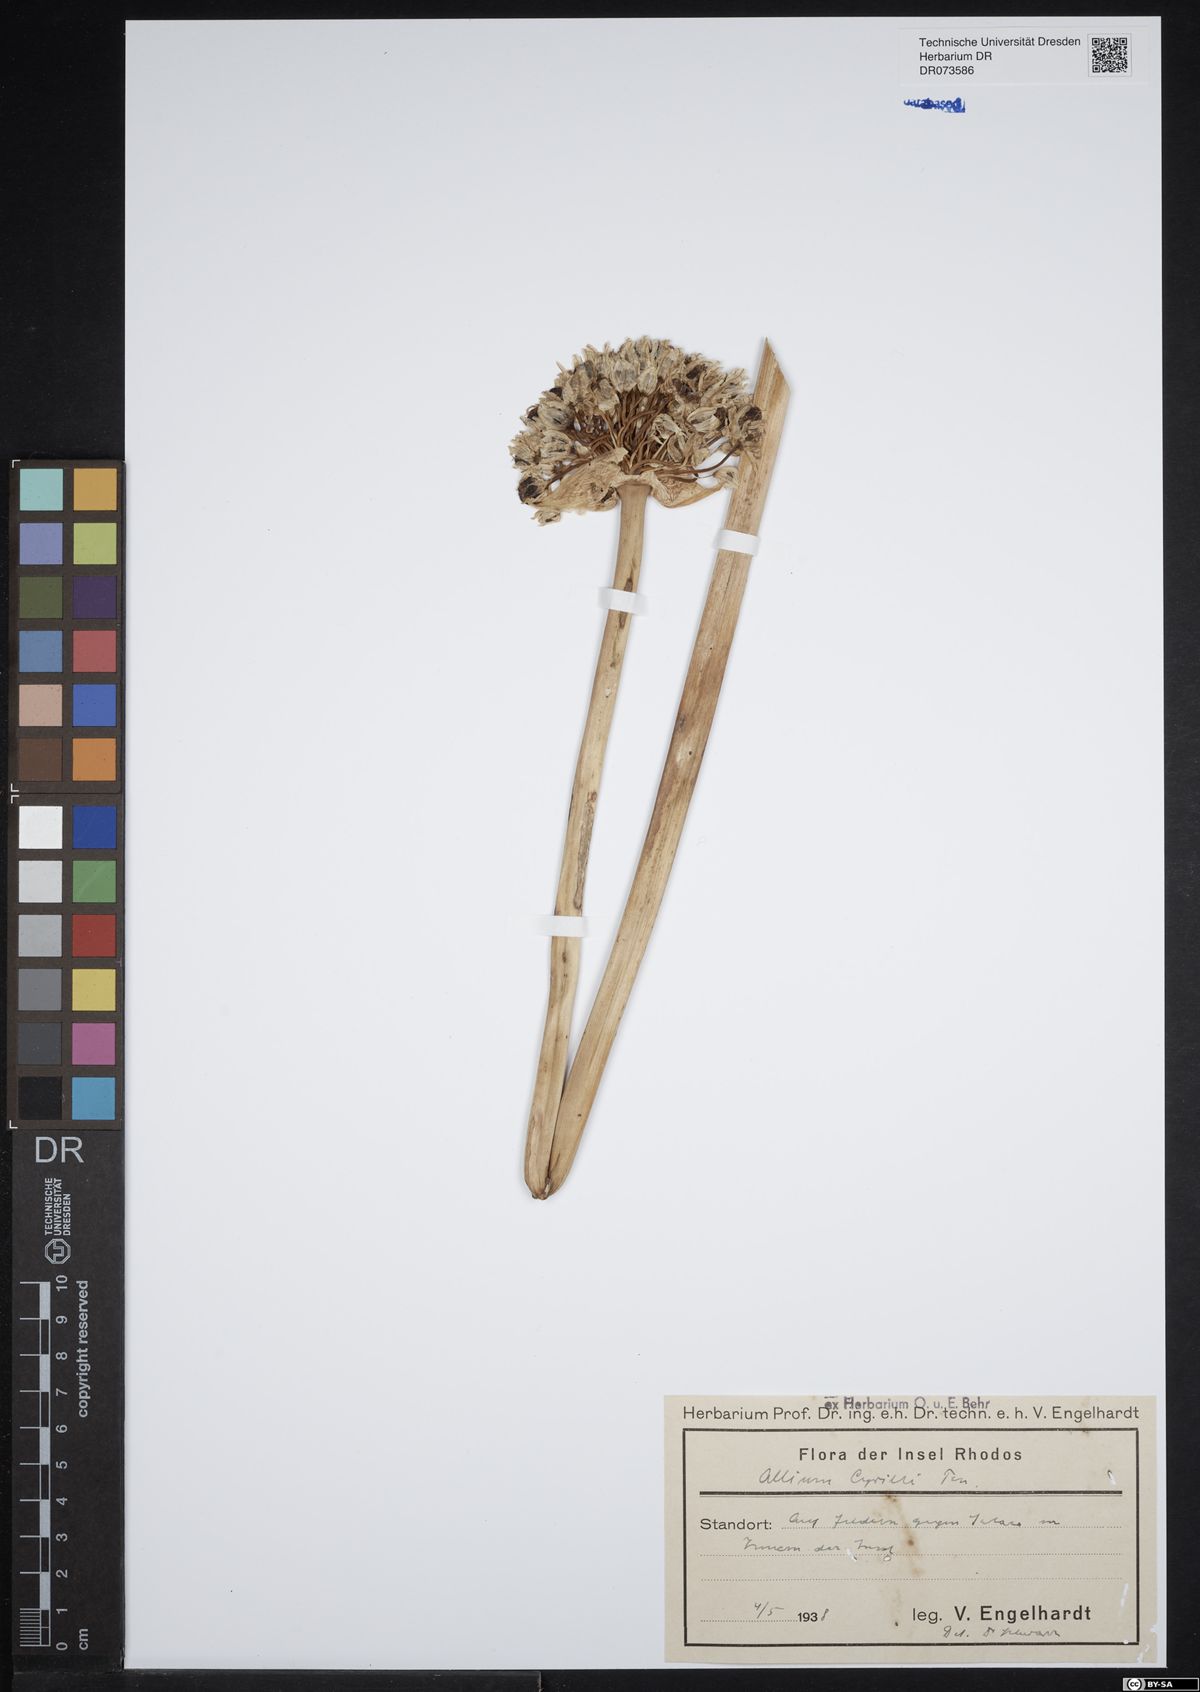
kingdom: Plantae
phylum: Tracheophyta
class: Liliopsida
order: Asparagales
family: Amaryllidaceae
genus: Allium
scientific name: Allium cyrilli
